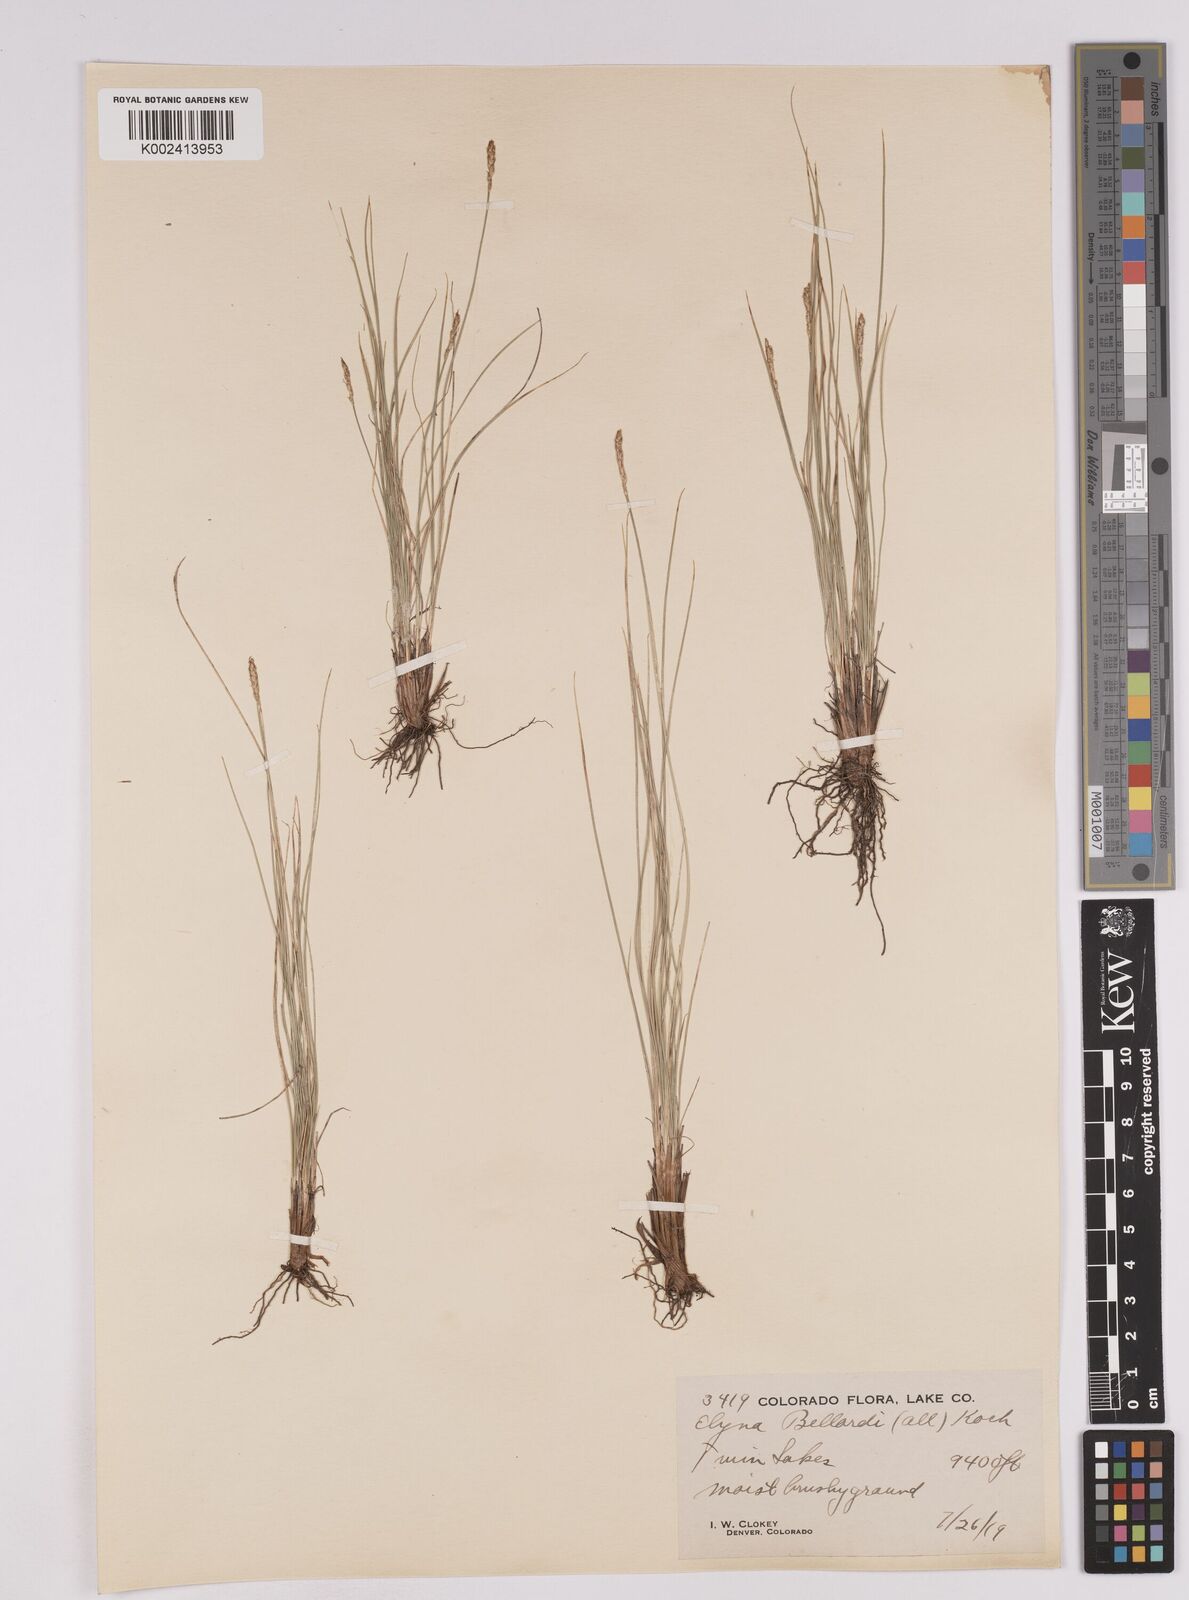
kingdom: Plantae
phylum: Tracheophyta
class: Liliopsida
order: Poales
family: Cyperaceae
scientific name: Cyperaceae
